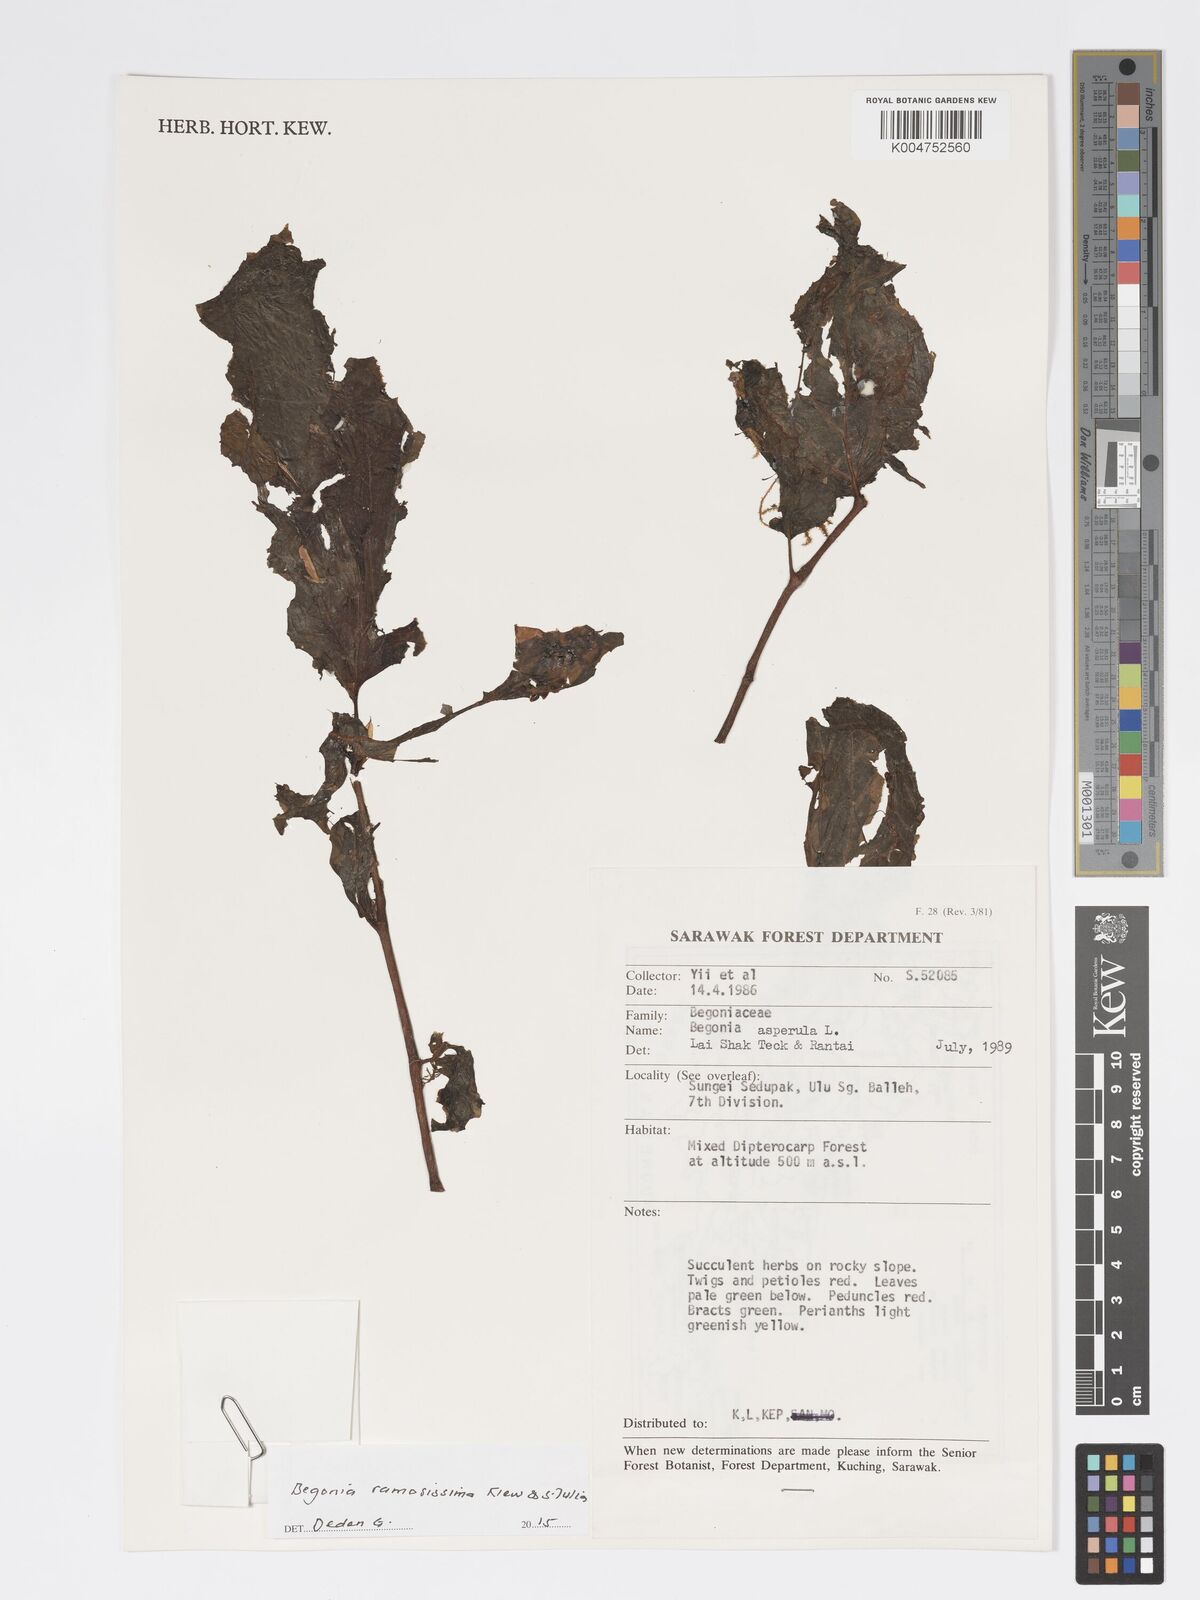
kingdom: Plantae
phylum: Tracheophyta
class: Magnoliopsida
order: Cucurbitales
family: Begoniaceae
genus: Begonia
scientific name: Begonia ramosissima
